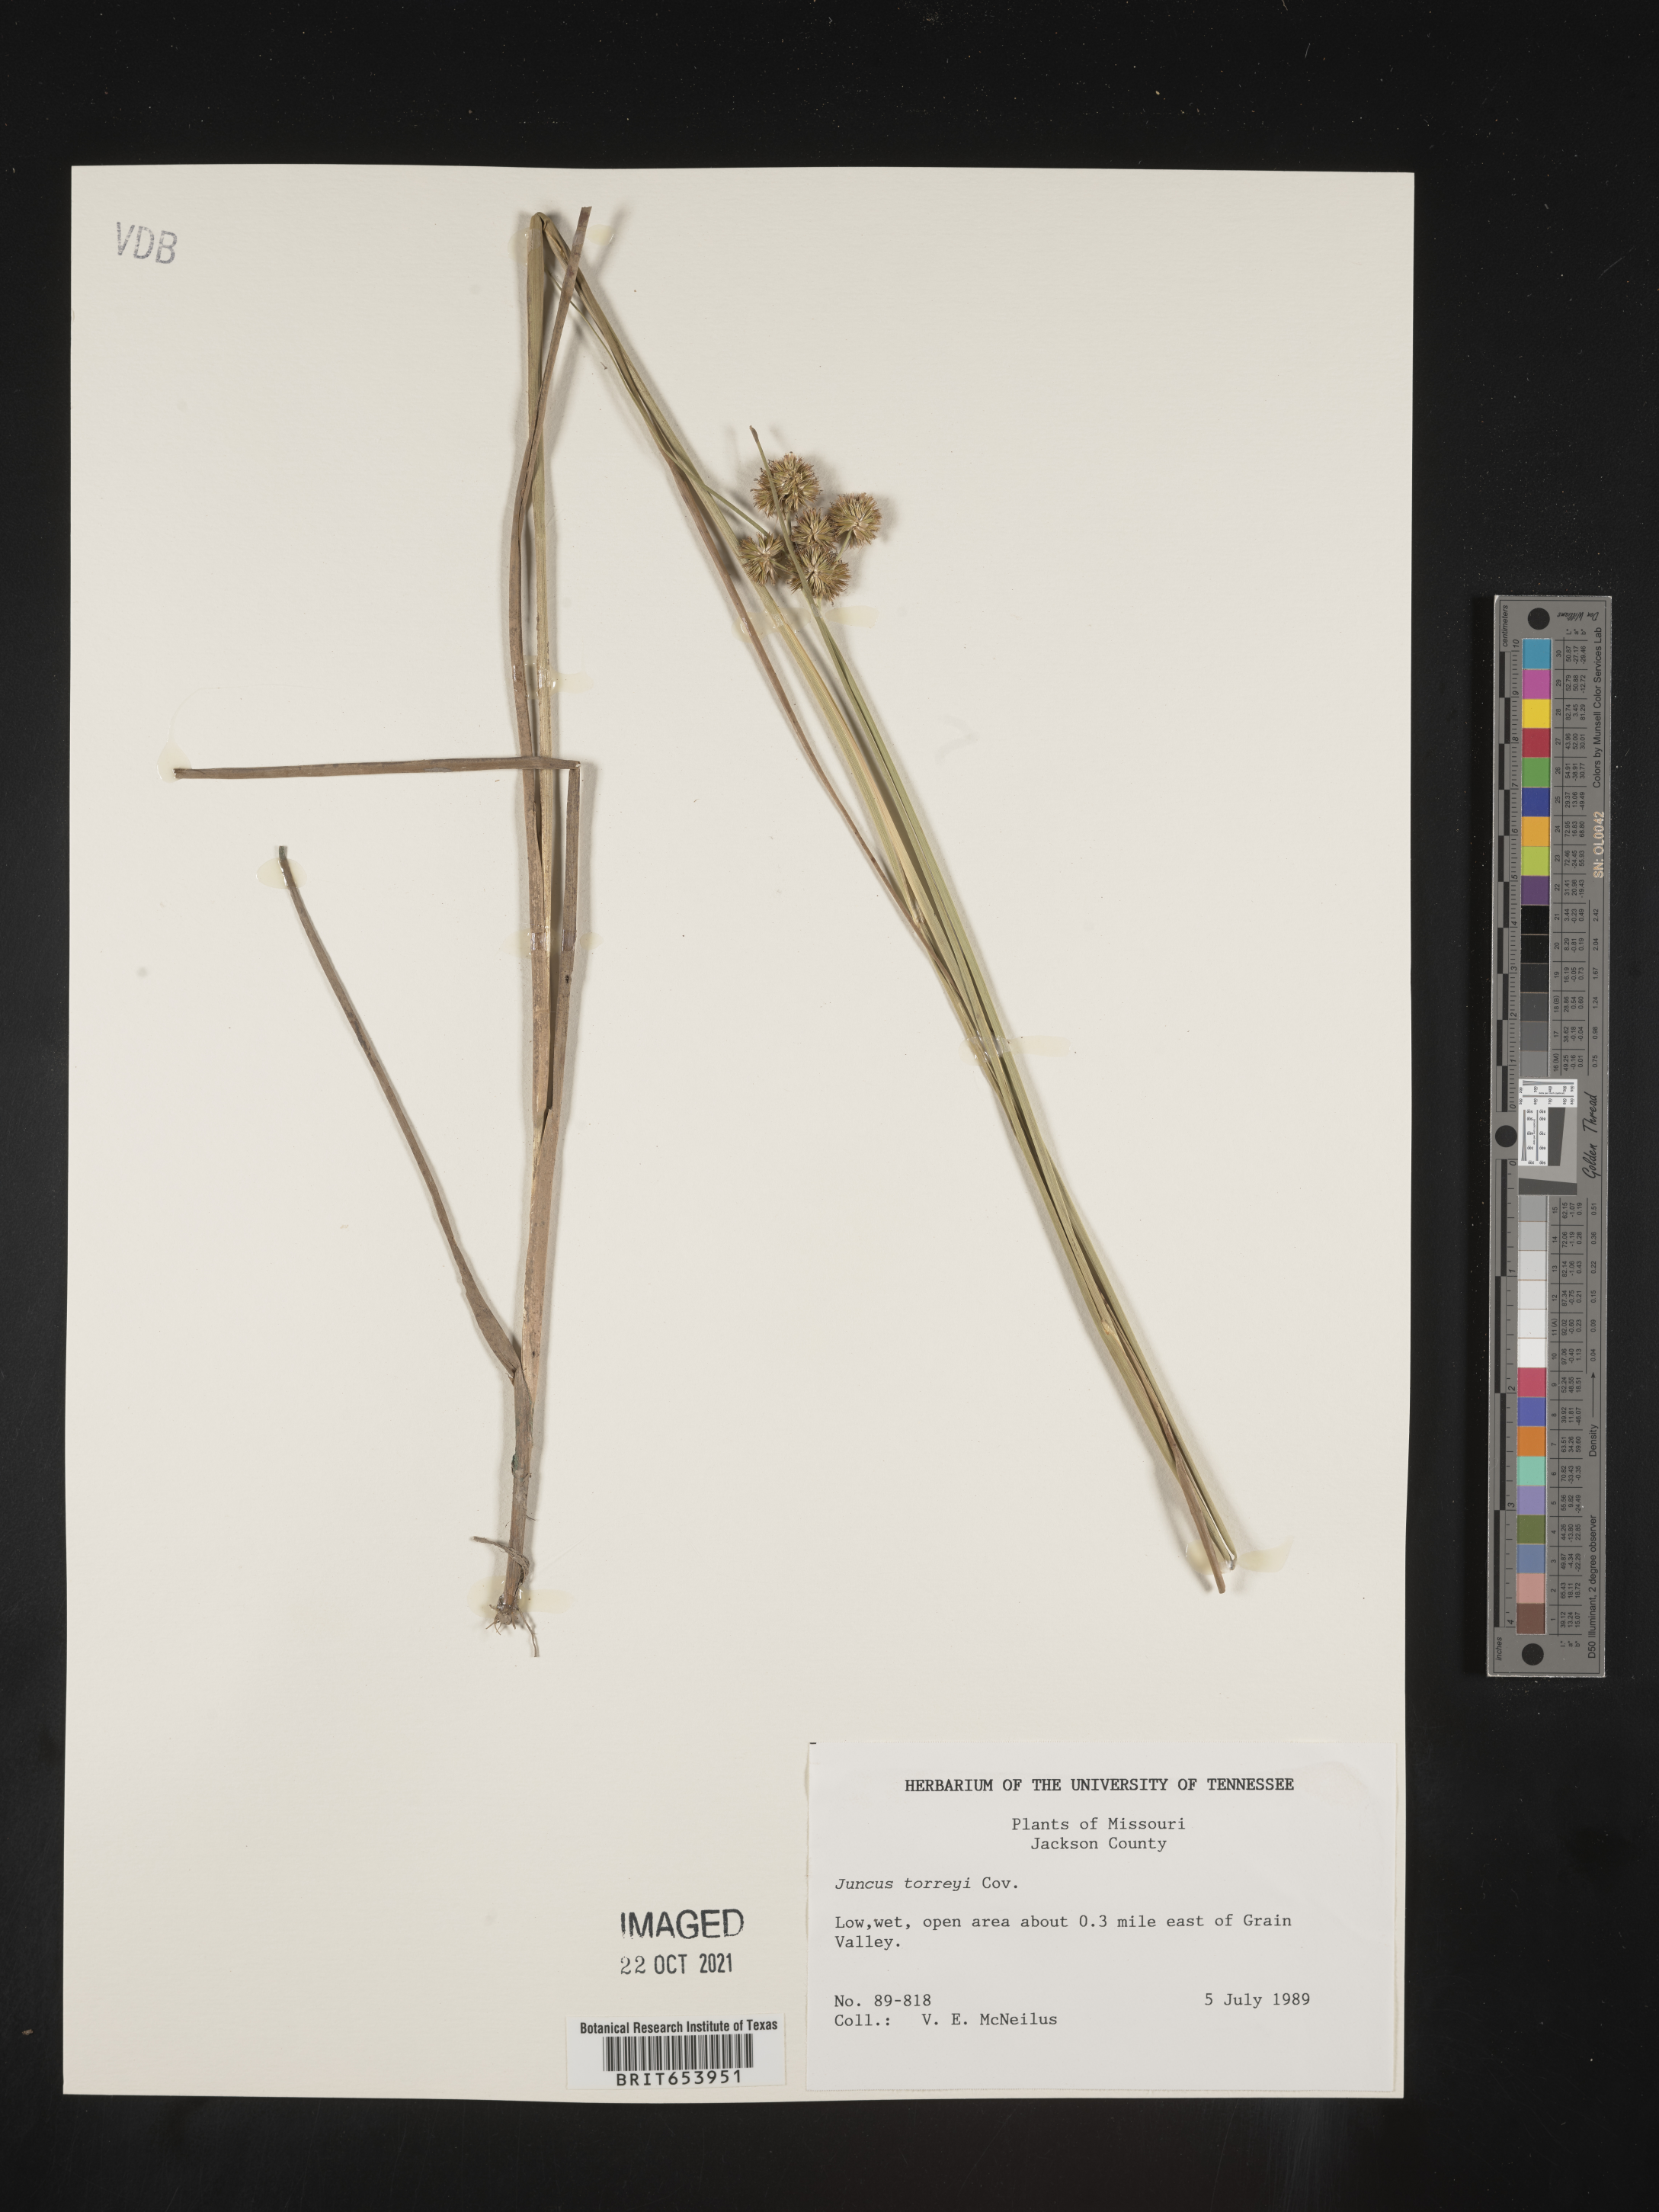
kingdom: Plantae
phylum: Tracheophyta
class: Liliopsida
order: Poales
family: Juncaceae
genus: Juncus
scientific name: Juncus torreyi
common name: Torrey's rush
